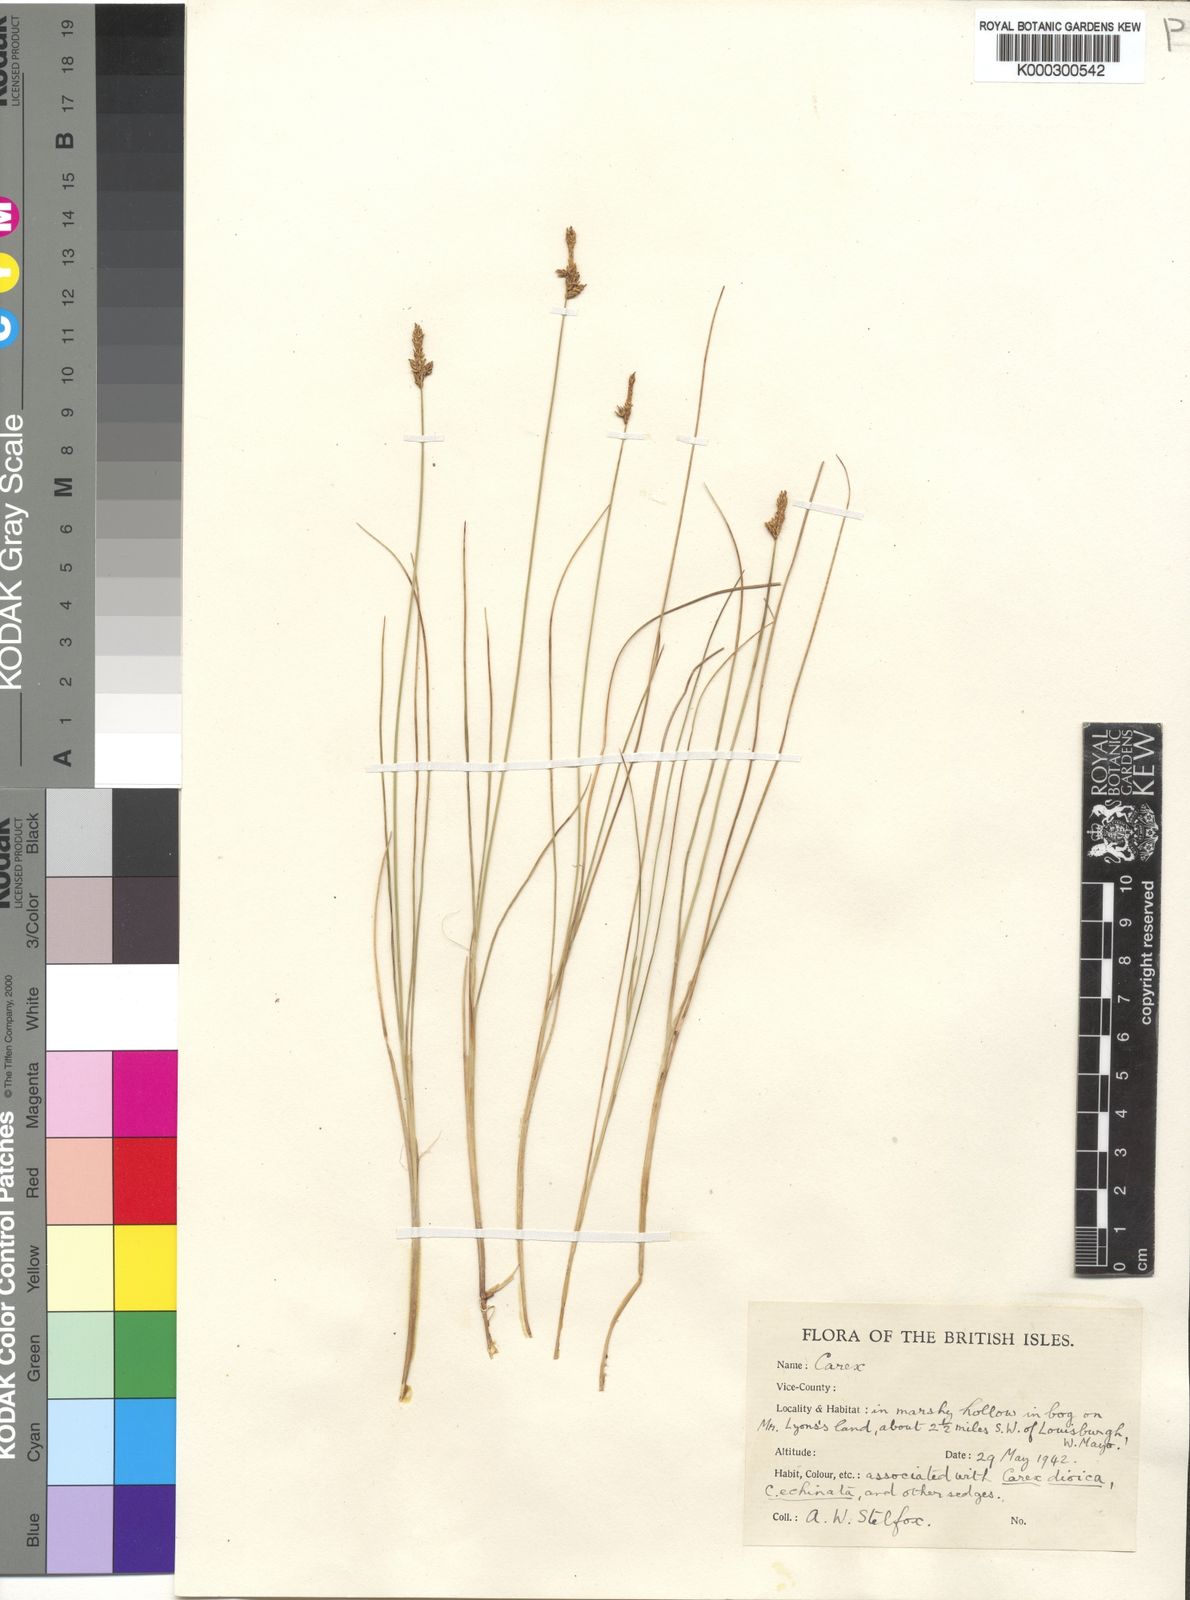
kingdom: Plantae
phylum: Tracheophyta
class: Liliopsida
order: Poales
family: Cyperaceae
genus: Carex
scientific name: Carex
